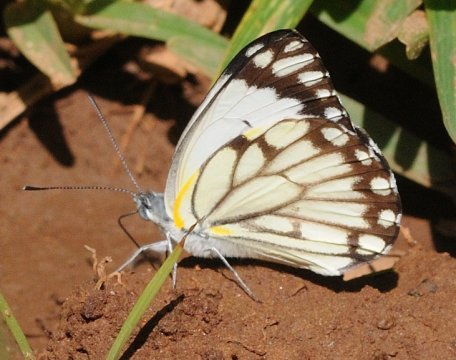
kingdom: Animalia
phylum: Arthropoda
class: Insecta
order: Lepidoptera
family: Pieridae
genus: Belenois
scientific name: Belenois creona
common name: African Caper
